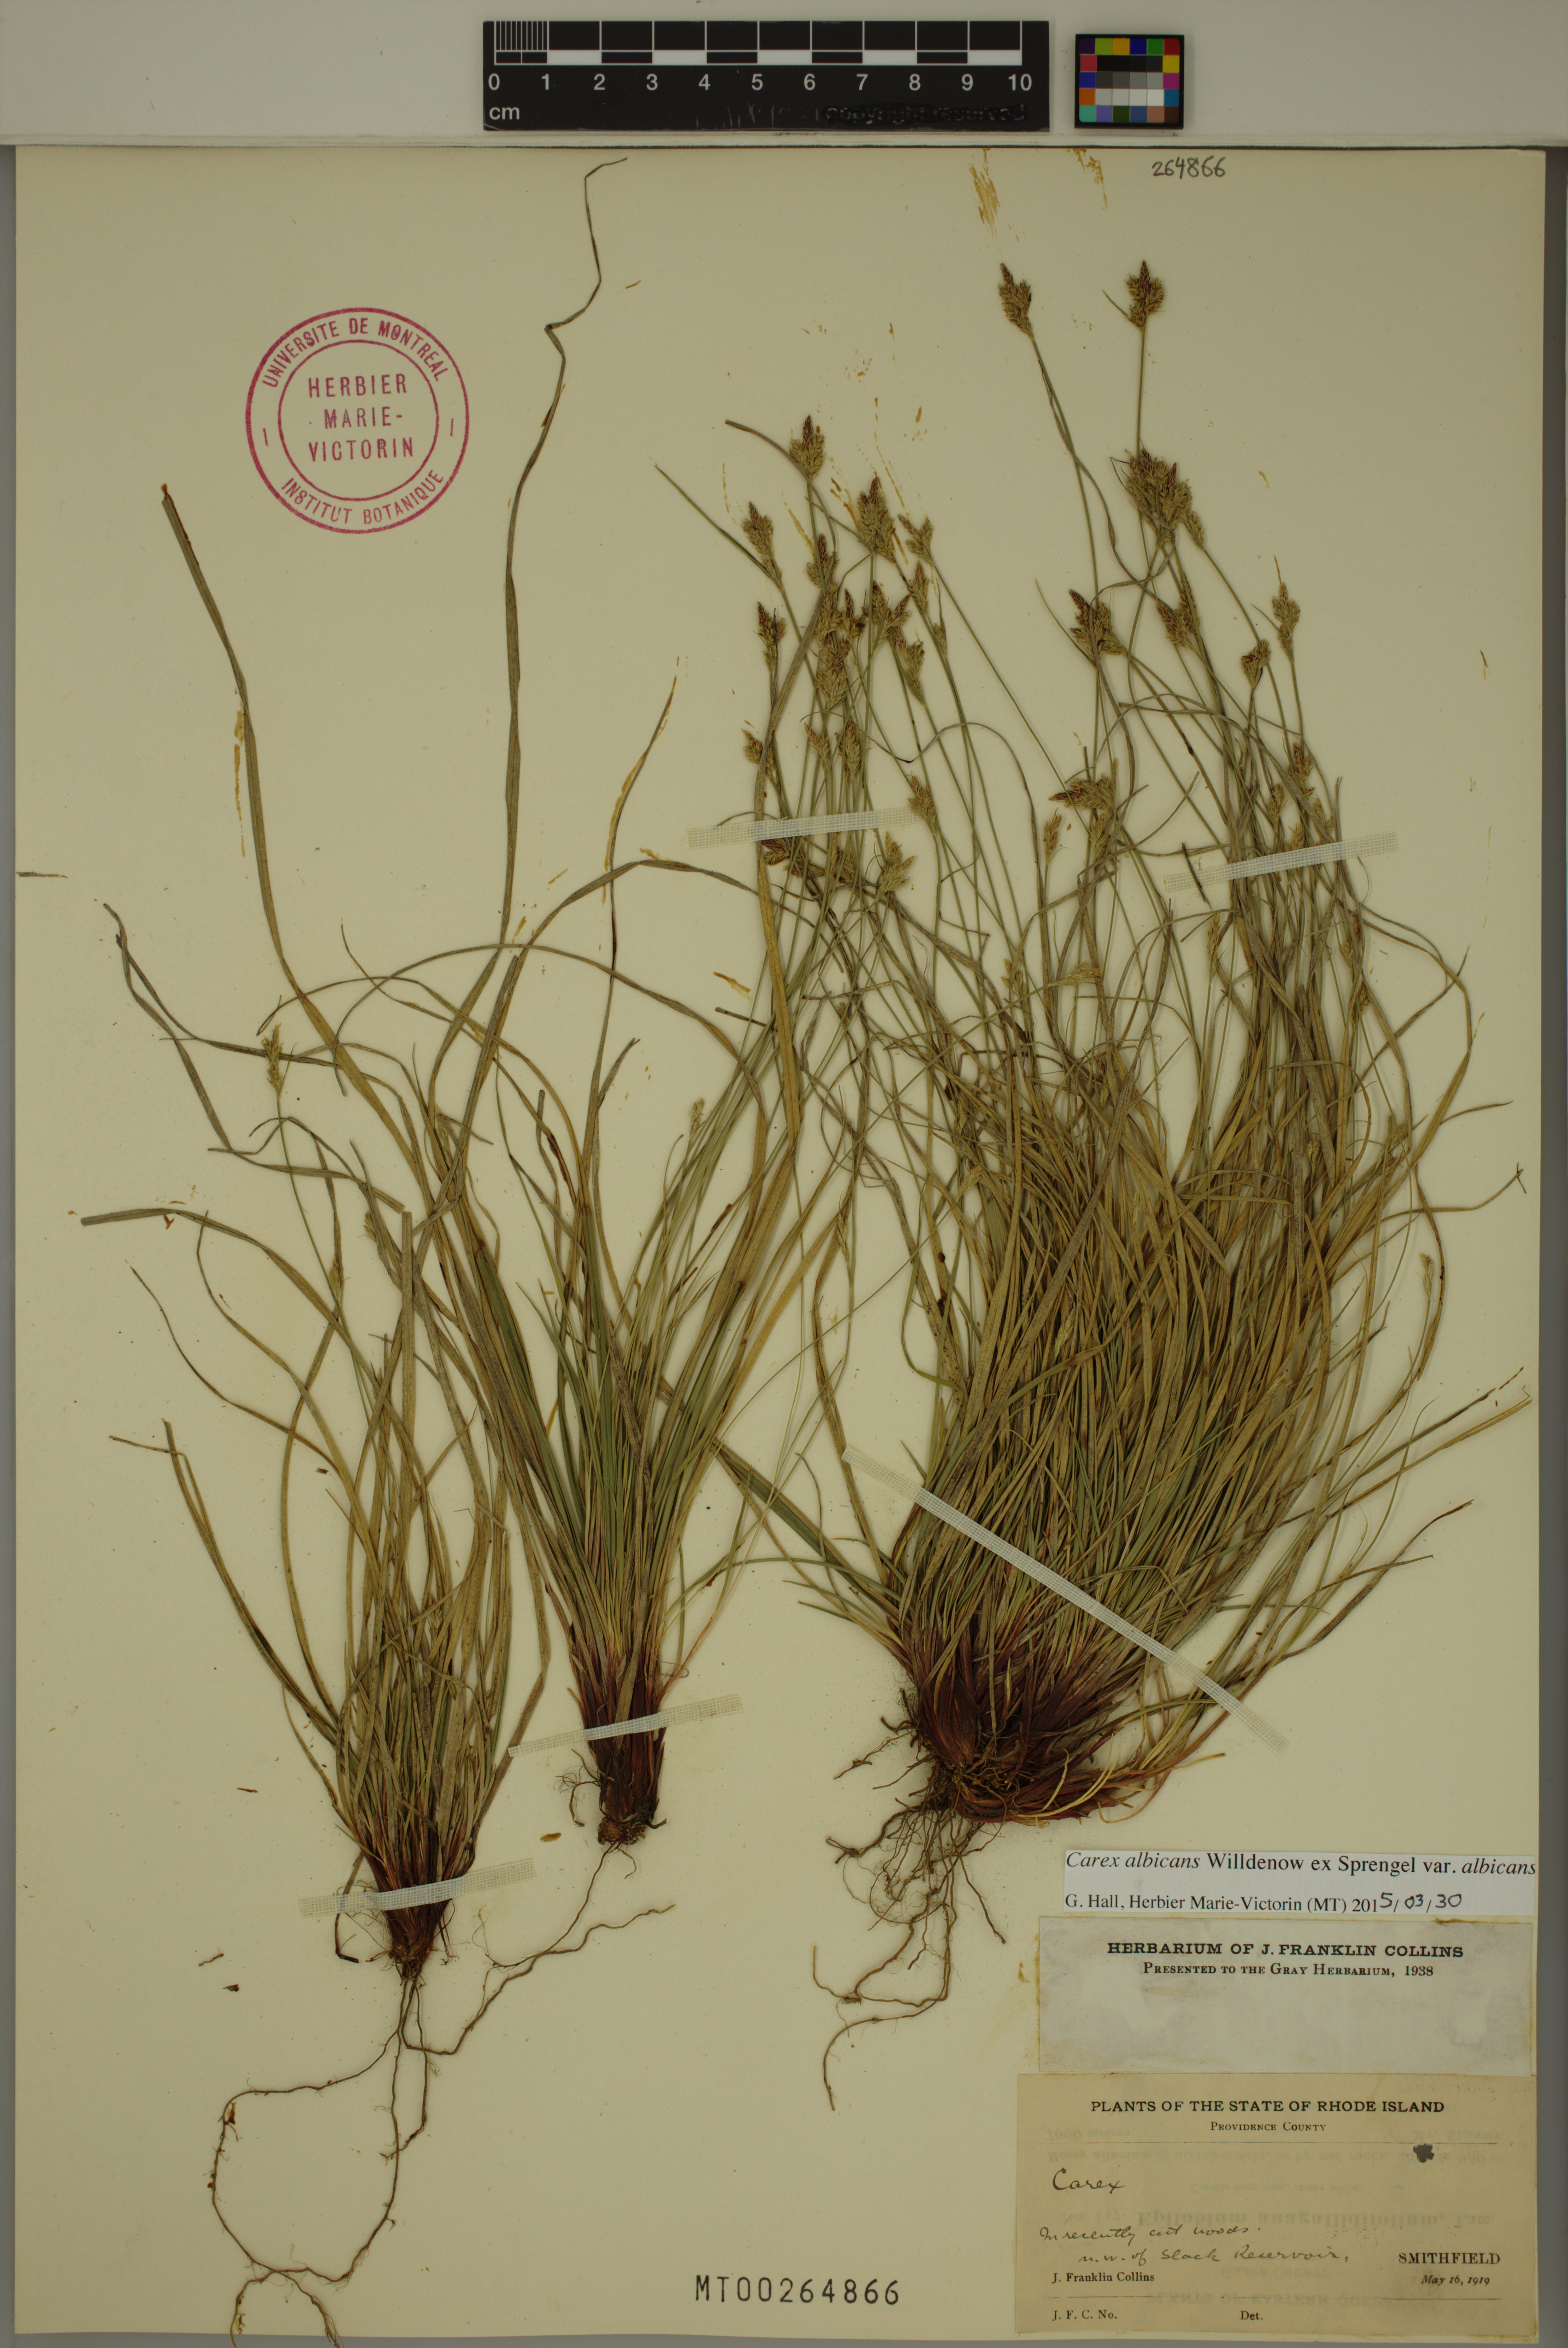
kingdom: Plantae
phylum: Tracheophyta
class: Liliopsida
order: Poales
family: Cyperaceae
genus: Carex
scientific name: Carex albicans
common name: Bellow-beaked sedge
